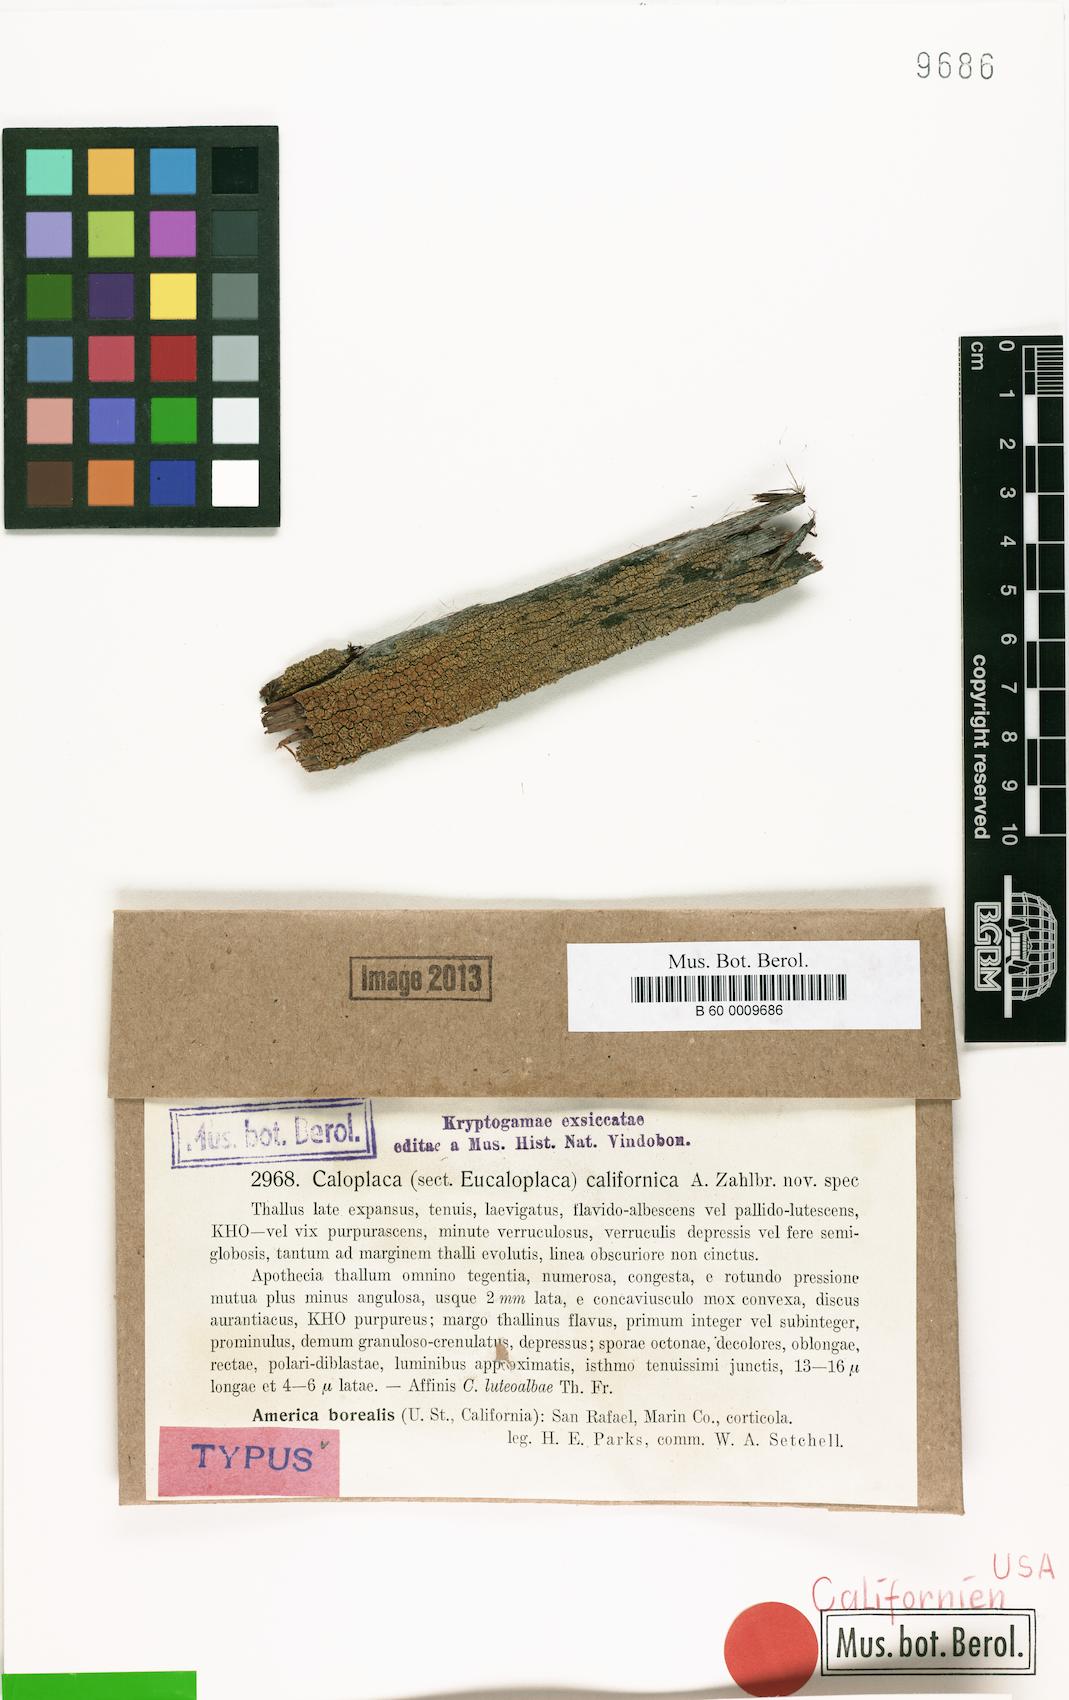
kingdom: Fungi
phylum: Ascomycota
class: Lecanoromycetes
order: Teloschistales
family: Teloschistaceae
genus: Caloplaca
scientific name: Caloplaca californica
